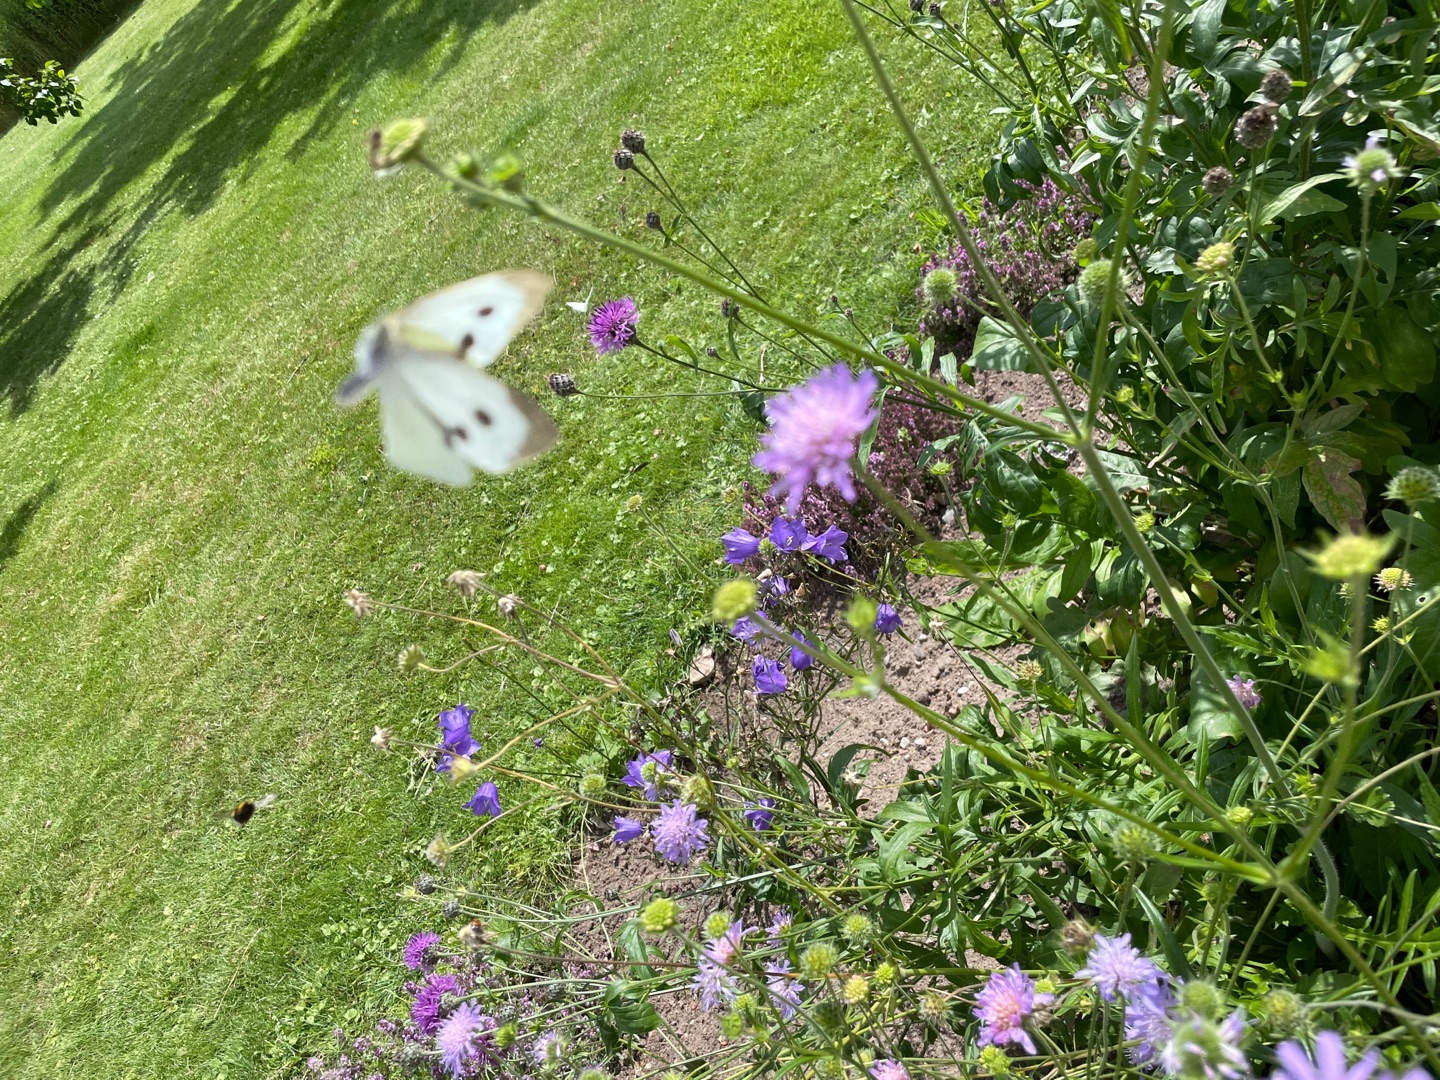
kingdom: Animalia
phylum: Arthropoda
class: Insecta
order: Lepidoptera
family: Pieridae
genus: Pieris
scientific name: Pieris brassicae
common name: Stor kålsommerfugl
